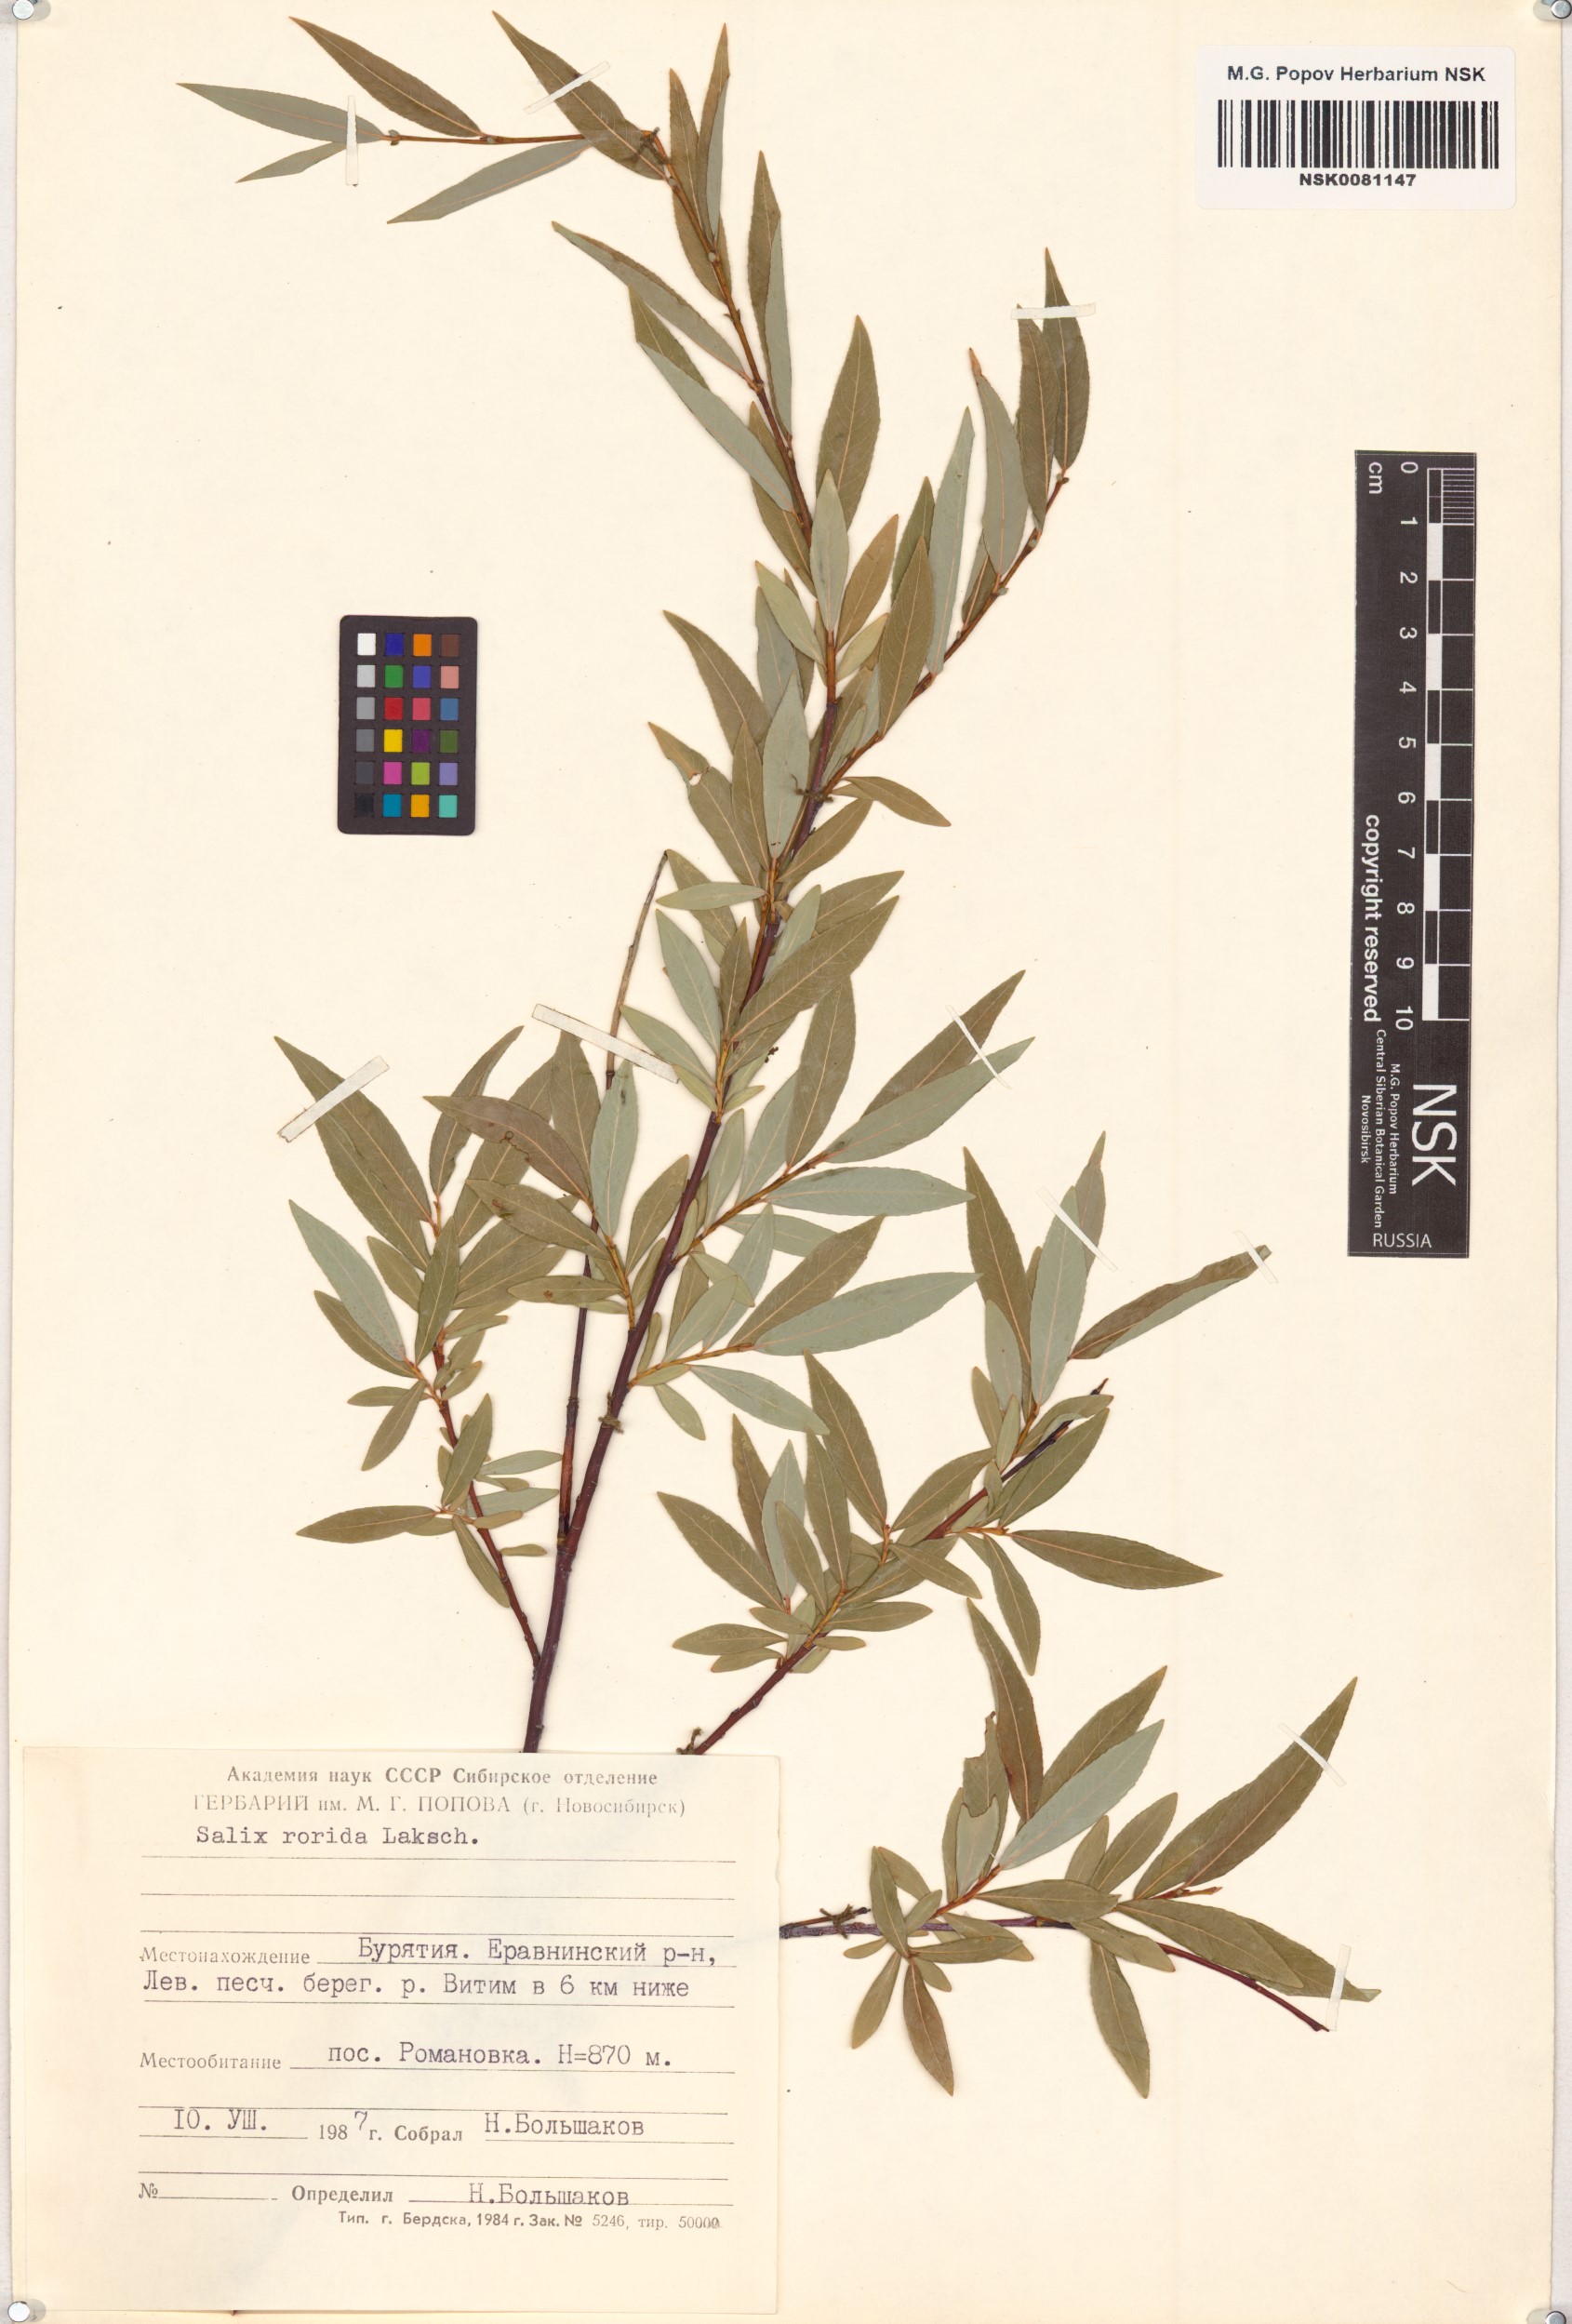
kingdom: Plantae
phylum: Tracheophyta
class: Magnoliopsida
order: Malpighiales
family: Salicaceae
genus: Salix
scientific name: Salix rorida
